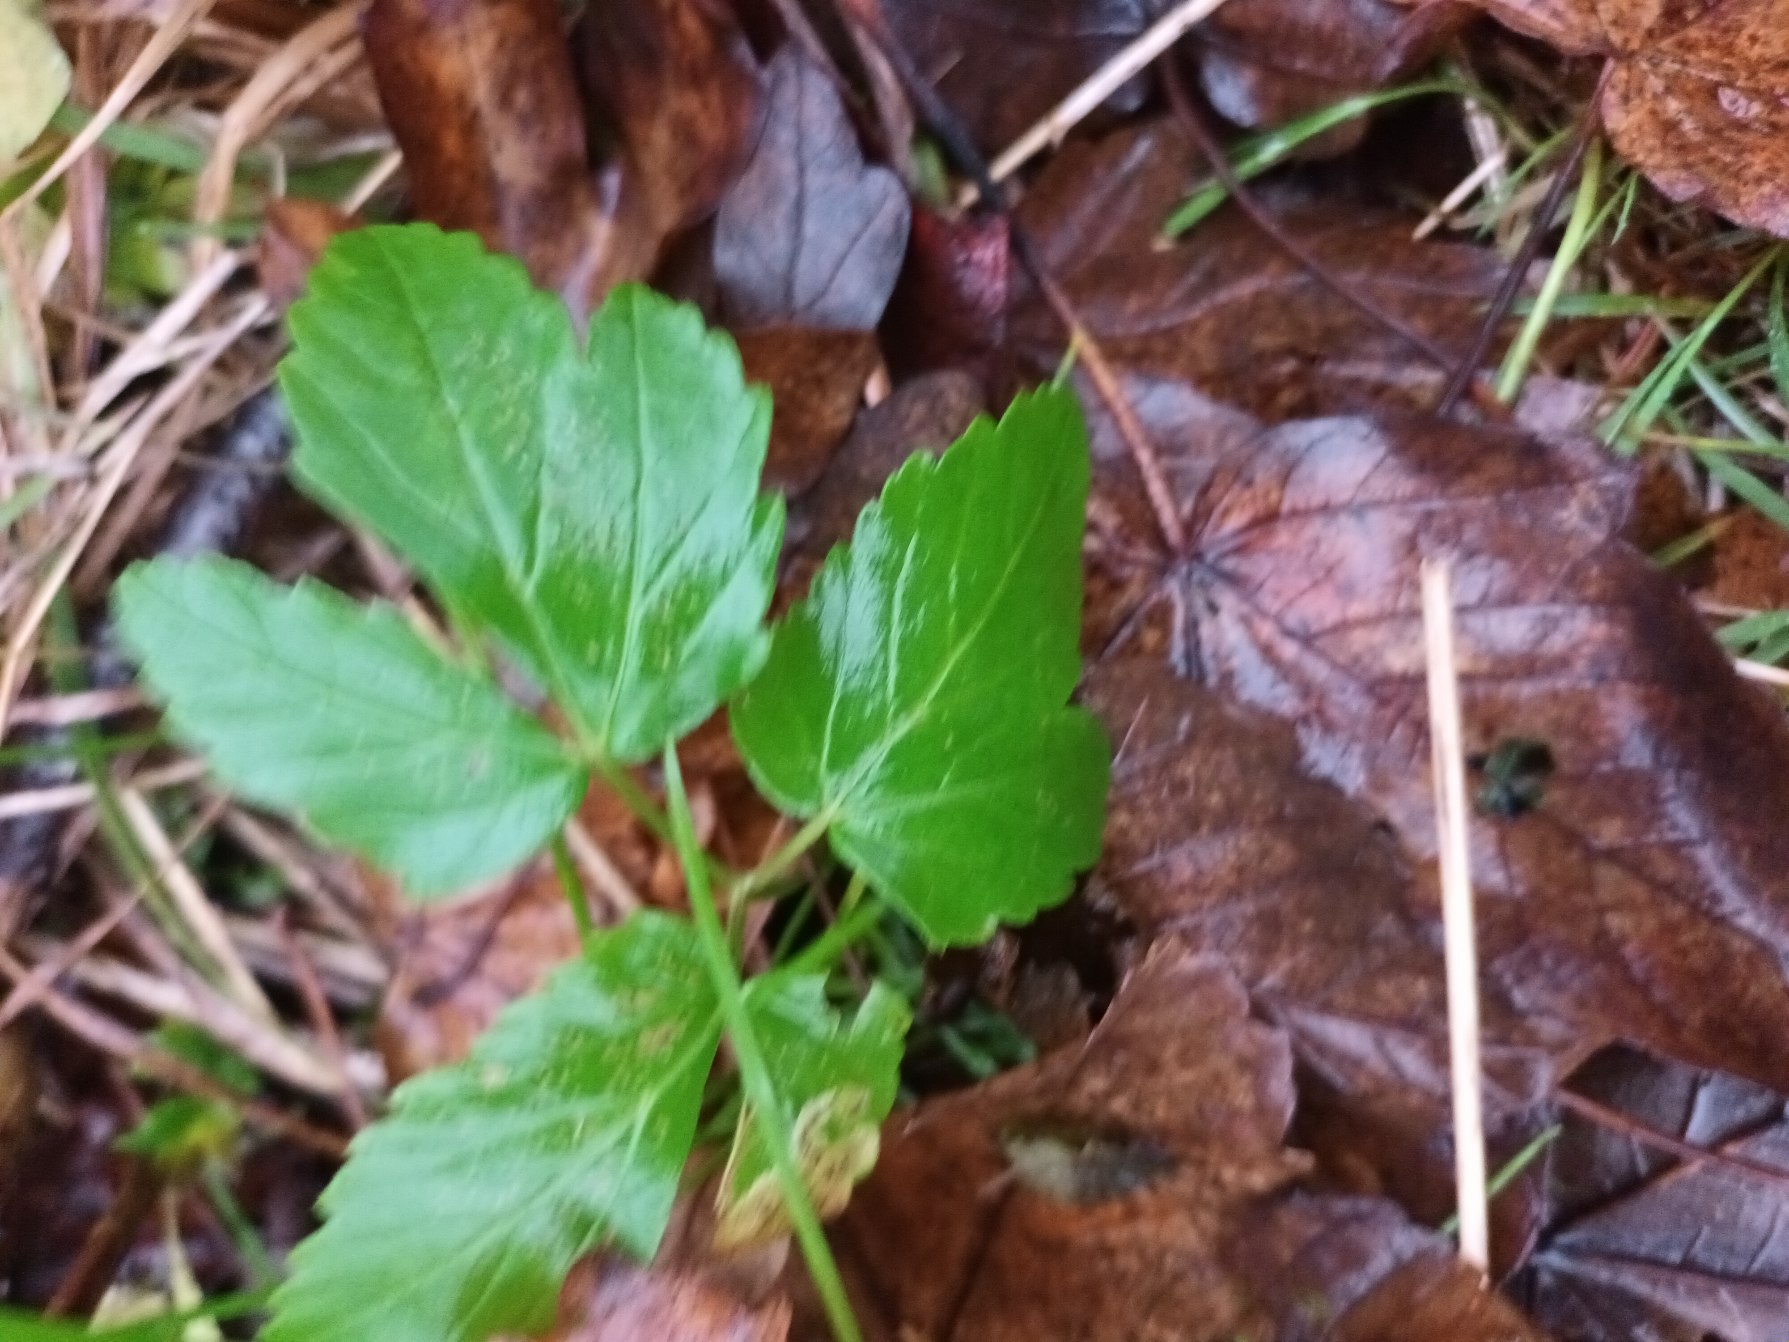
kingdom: Plantae
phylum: Tracheophyta
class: Magnoliopsida
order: Apiales
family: Apiaceae
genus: Aegopodium
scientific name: Aegopodium podagraria
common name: Skvalderkål
